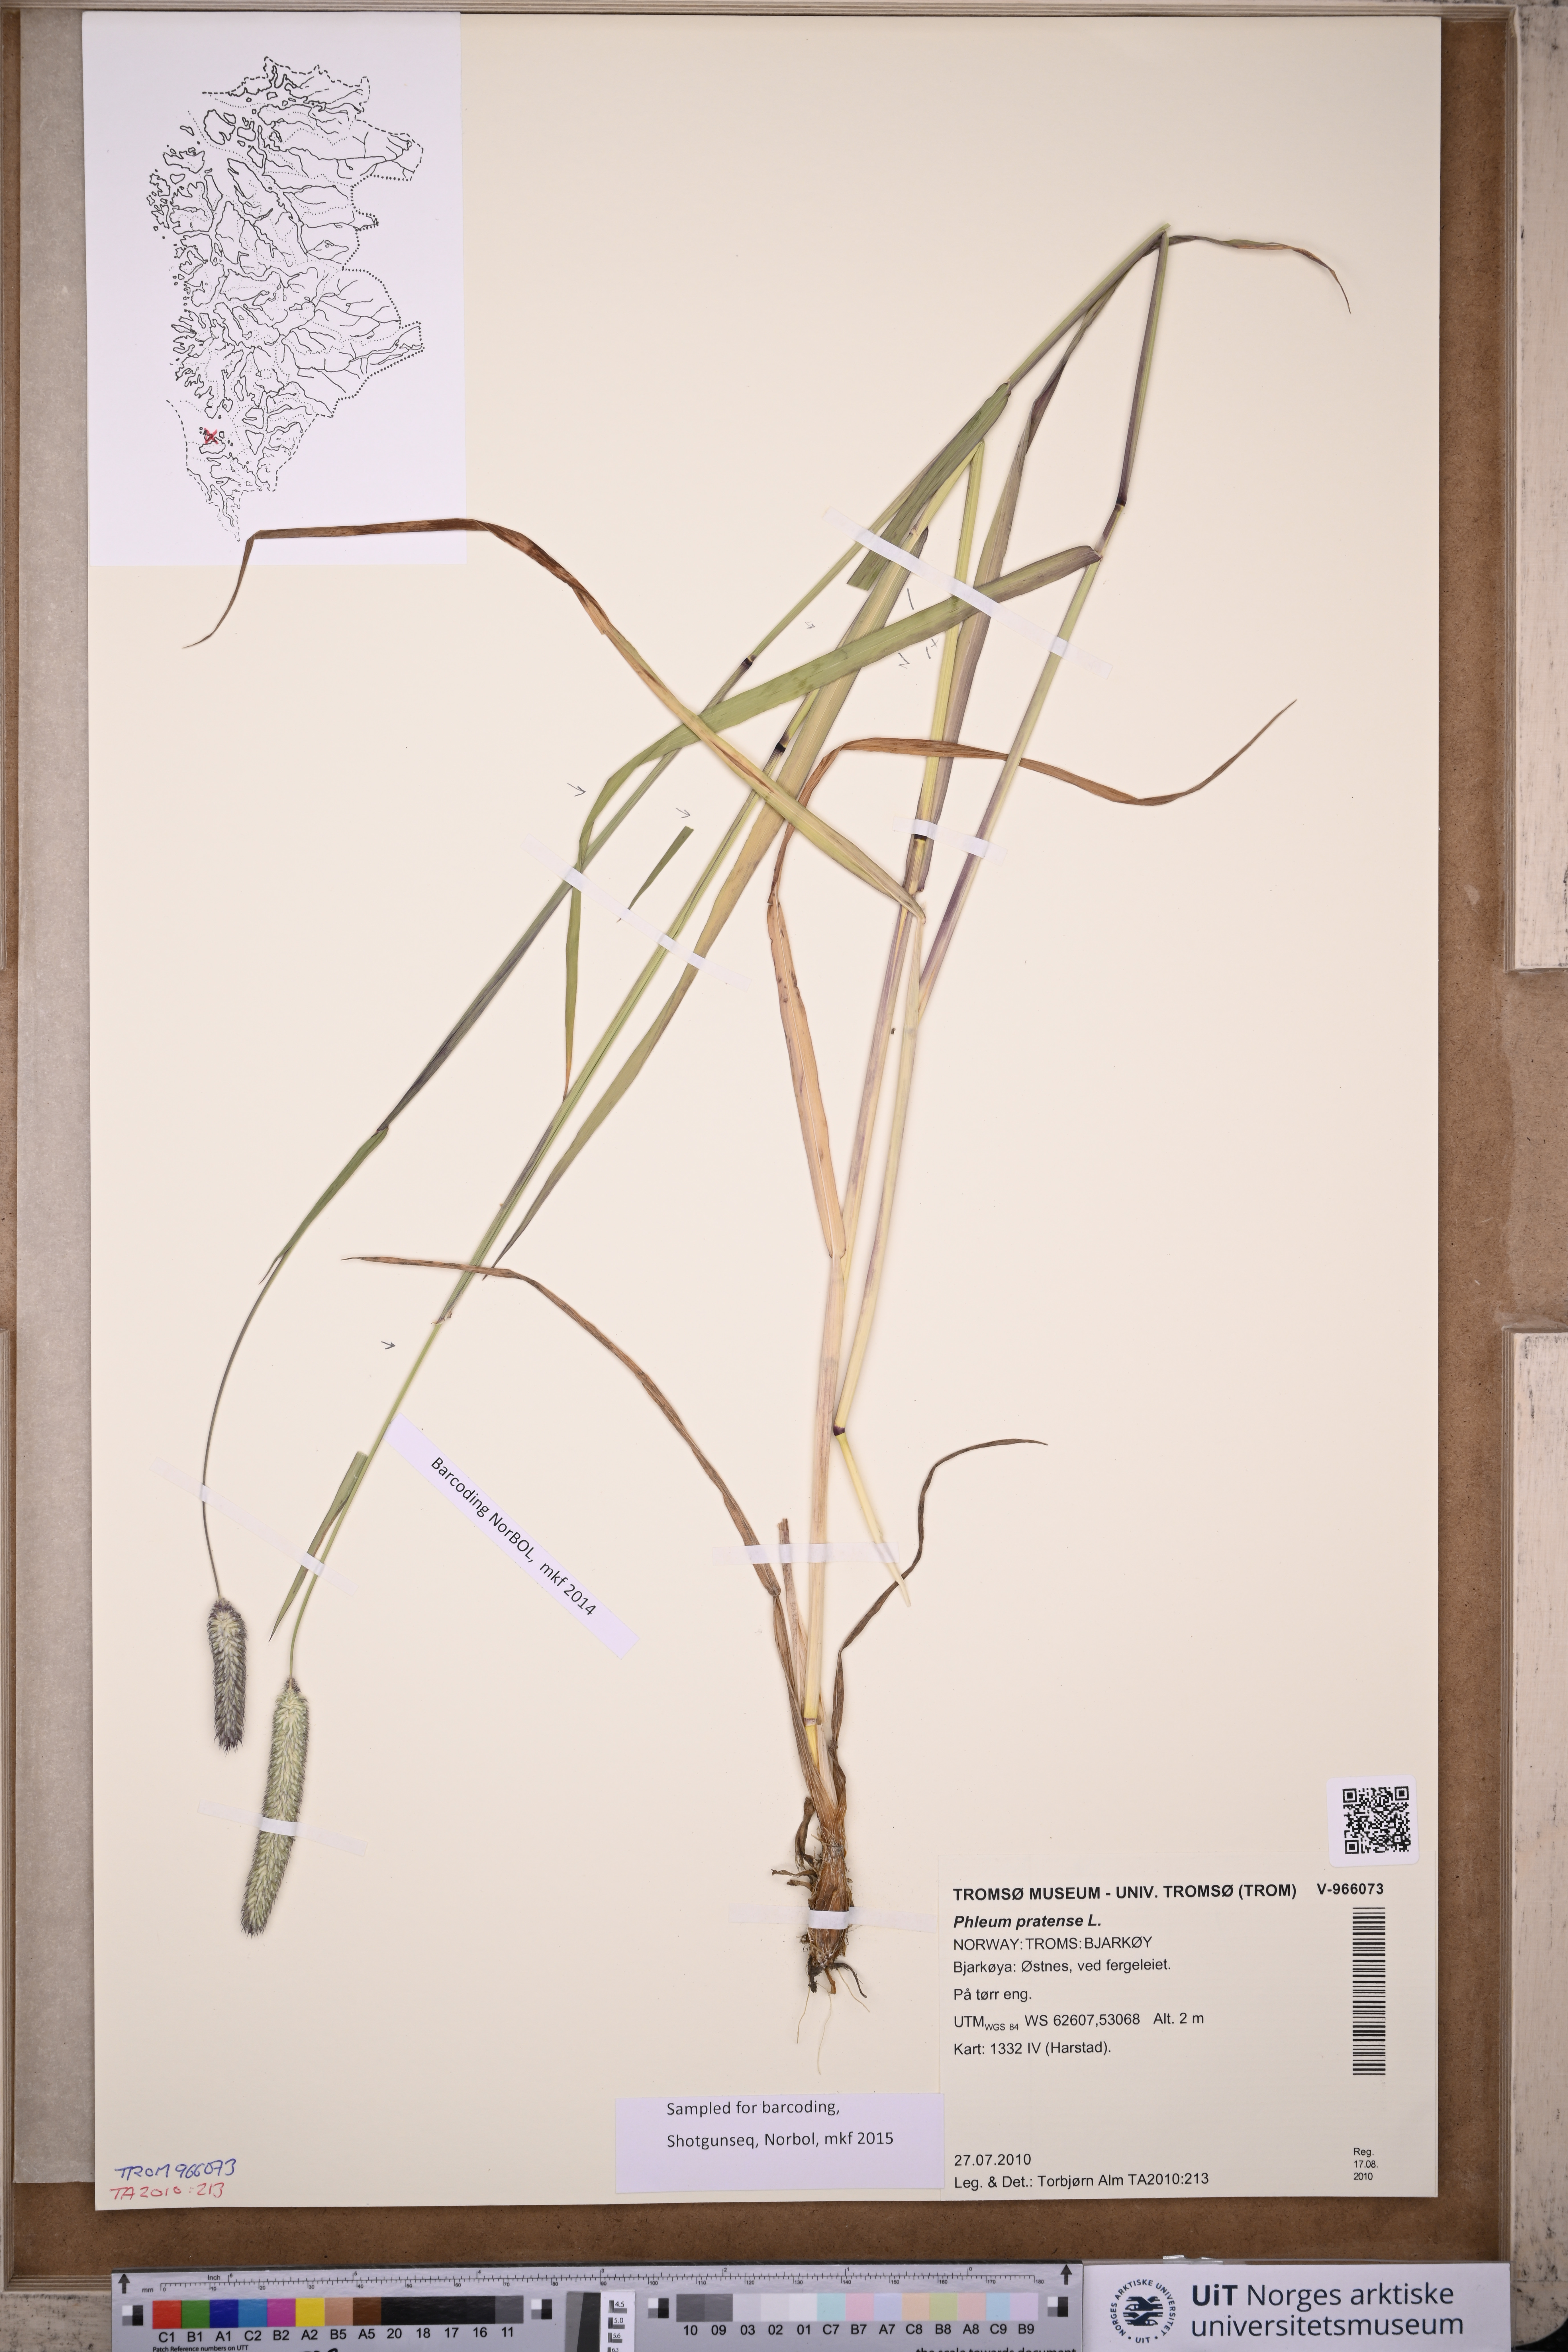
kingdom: Plantae
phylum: Tracheophyta
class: Liliopsida
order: Poales
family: Poaceae
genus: Phleum
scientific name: Phleum pratense
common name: Timothy grass
